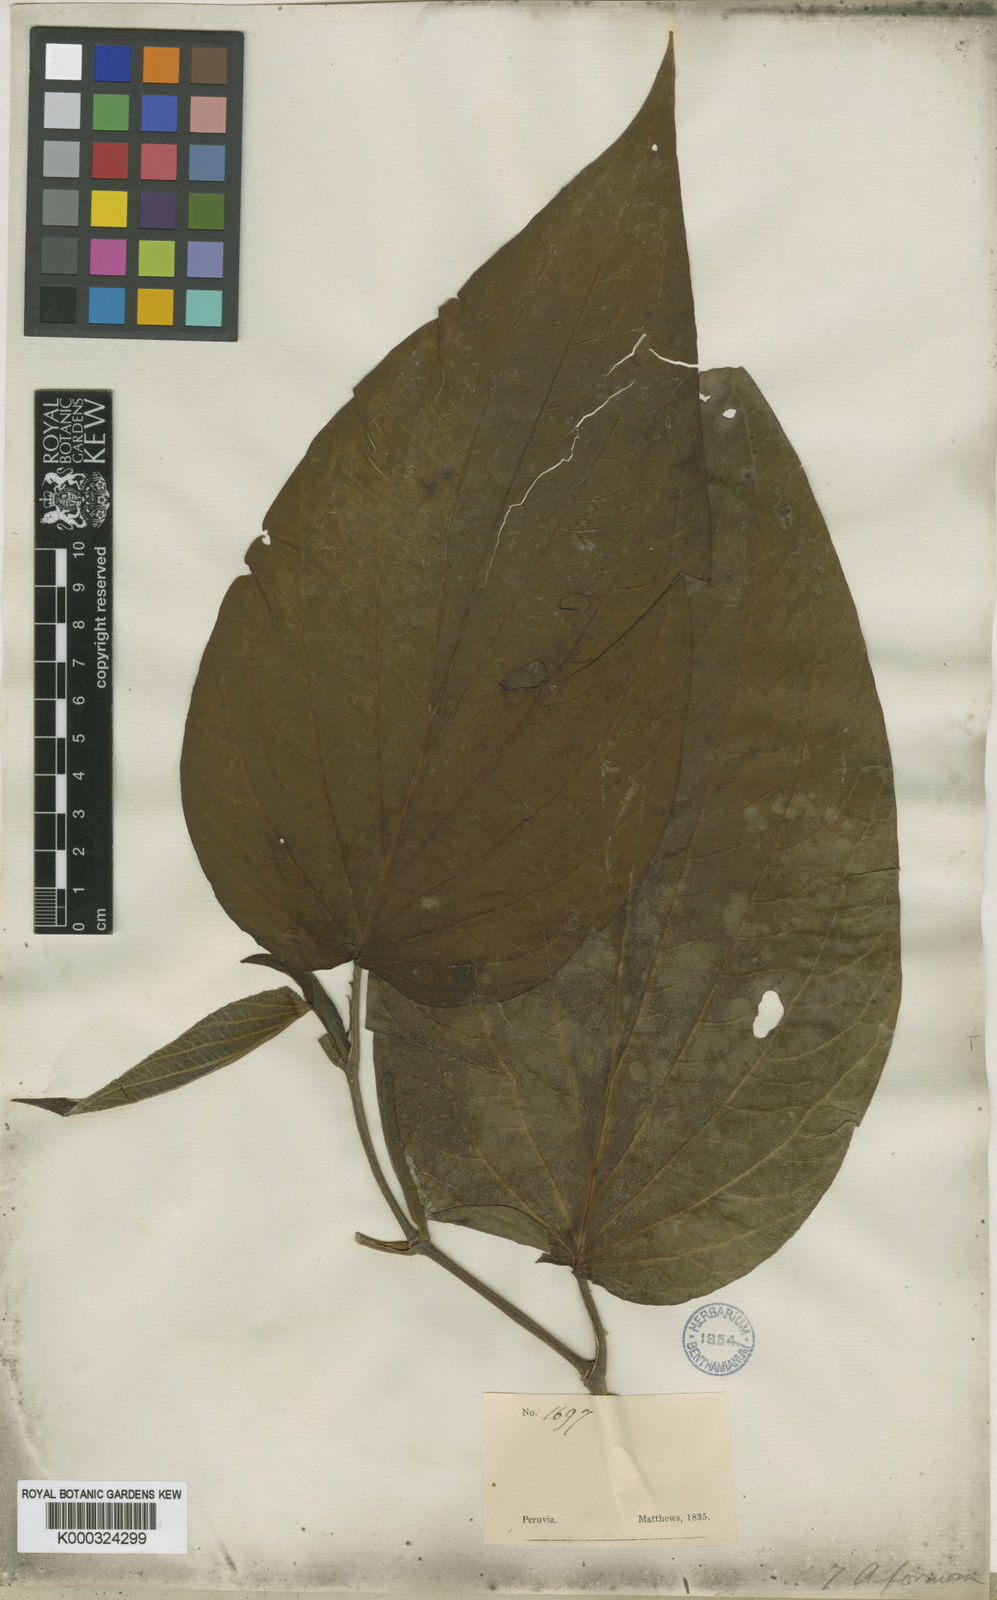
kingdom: Plantae
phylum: Tracheophyta
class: Magnoliopsida
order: Piperales
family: Piperaceae
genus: Piper
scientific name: Piper formosum
